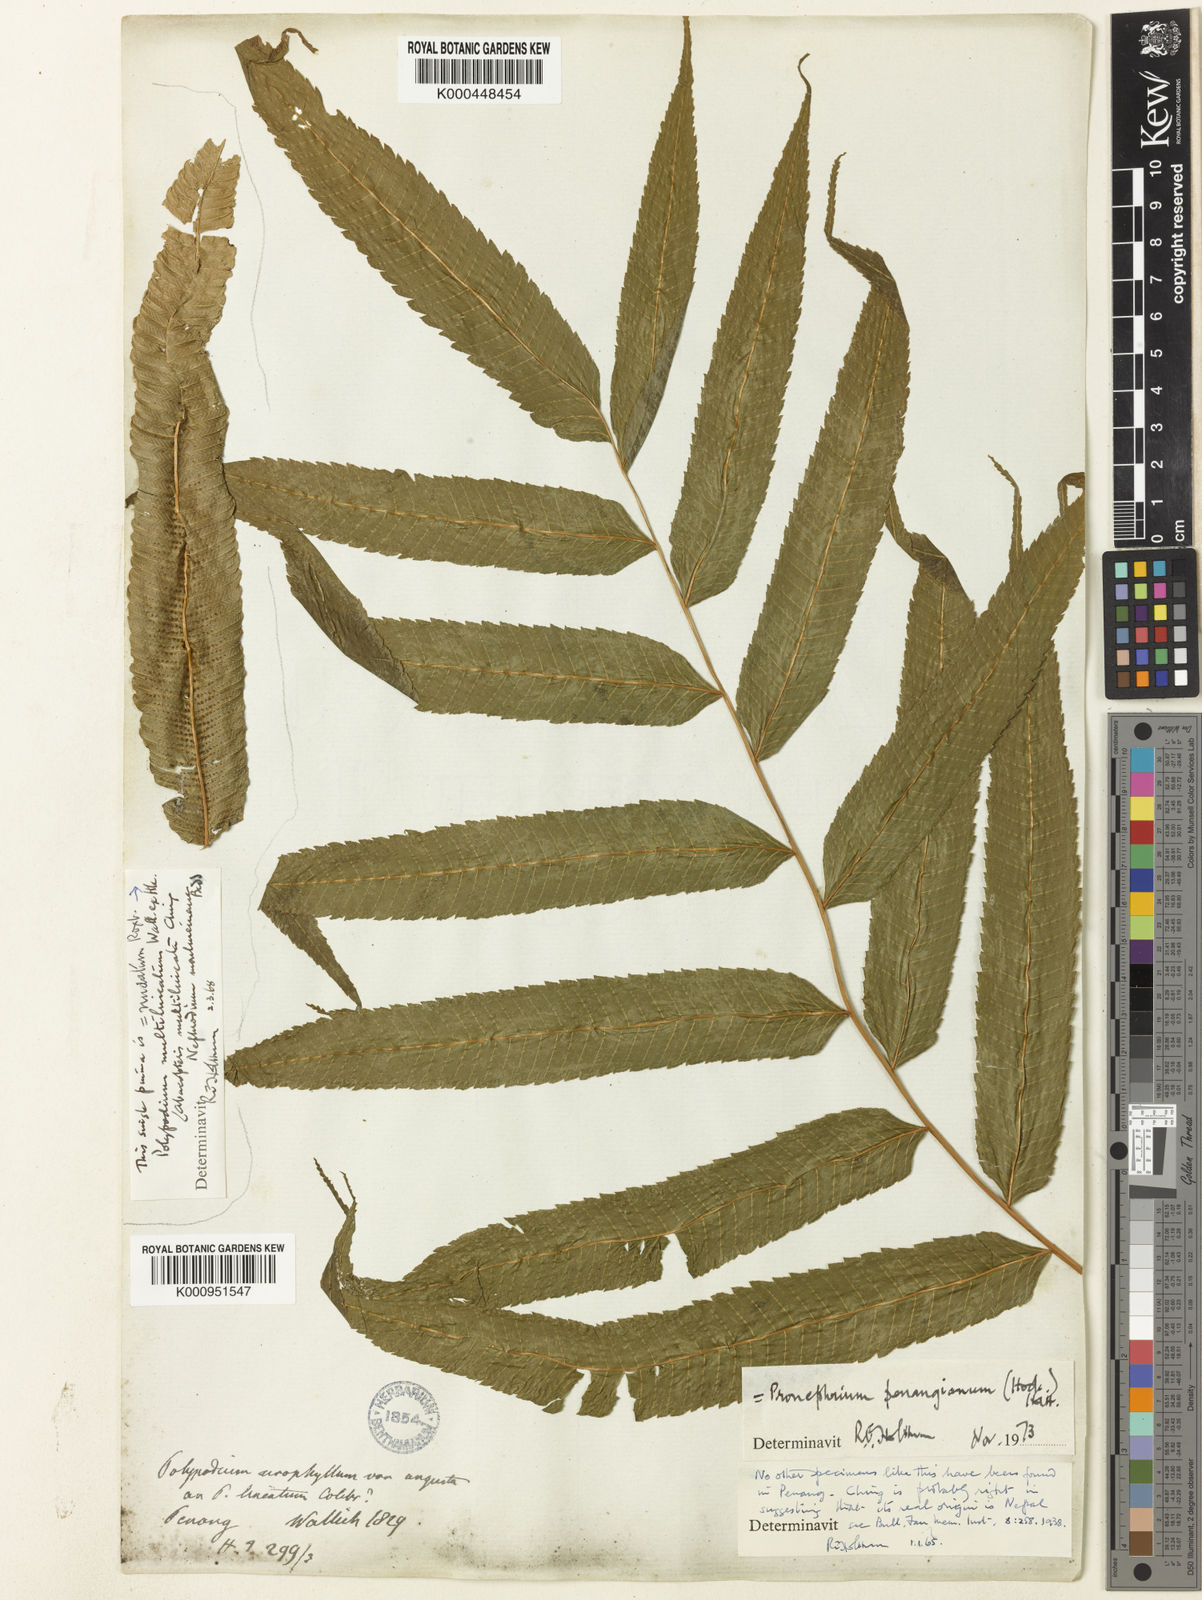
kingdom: Plantae
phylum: Tracheophyta
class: Polypodiopsida
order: Polypodiales
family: Thelypteridaceae
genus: Menisciopsis
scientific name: Menisciopsis penangiana
